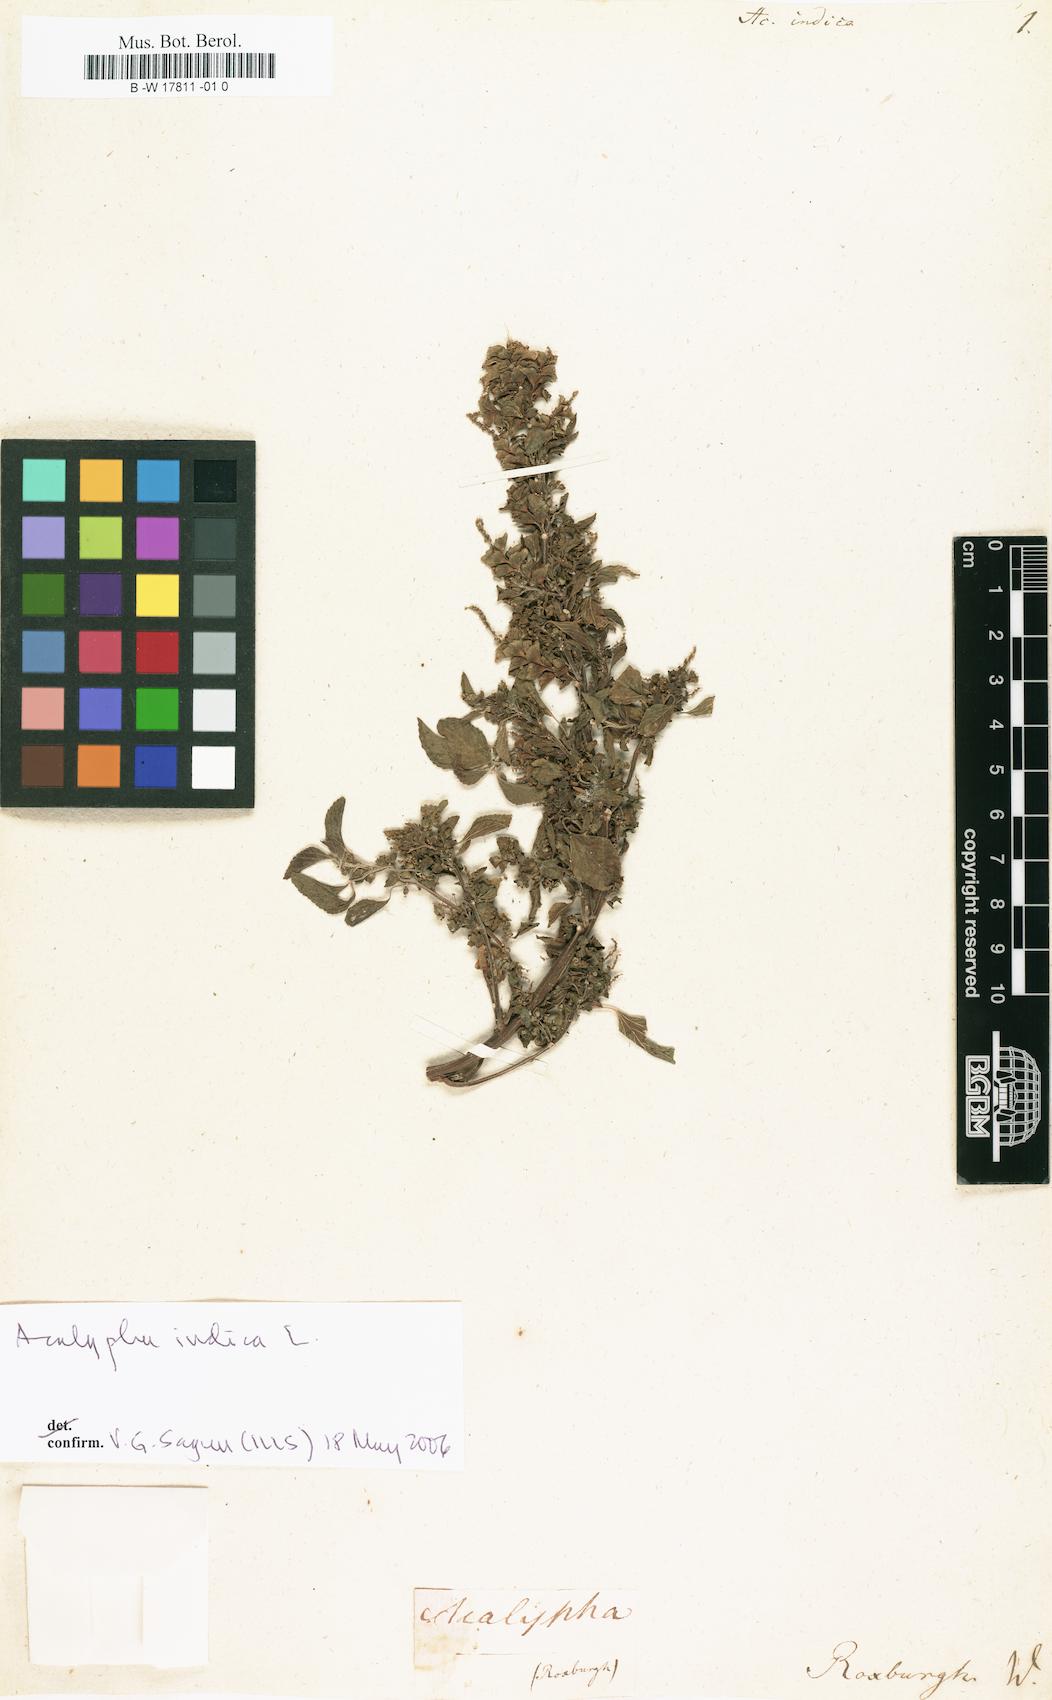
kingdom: Plantae
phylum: Tracheophyta
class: Magnoliopsida
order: Malpighiales
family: Euphorbiaceae
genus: Acalypha
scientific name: Acalypha indica
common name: Indian acalypha
